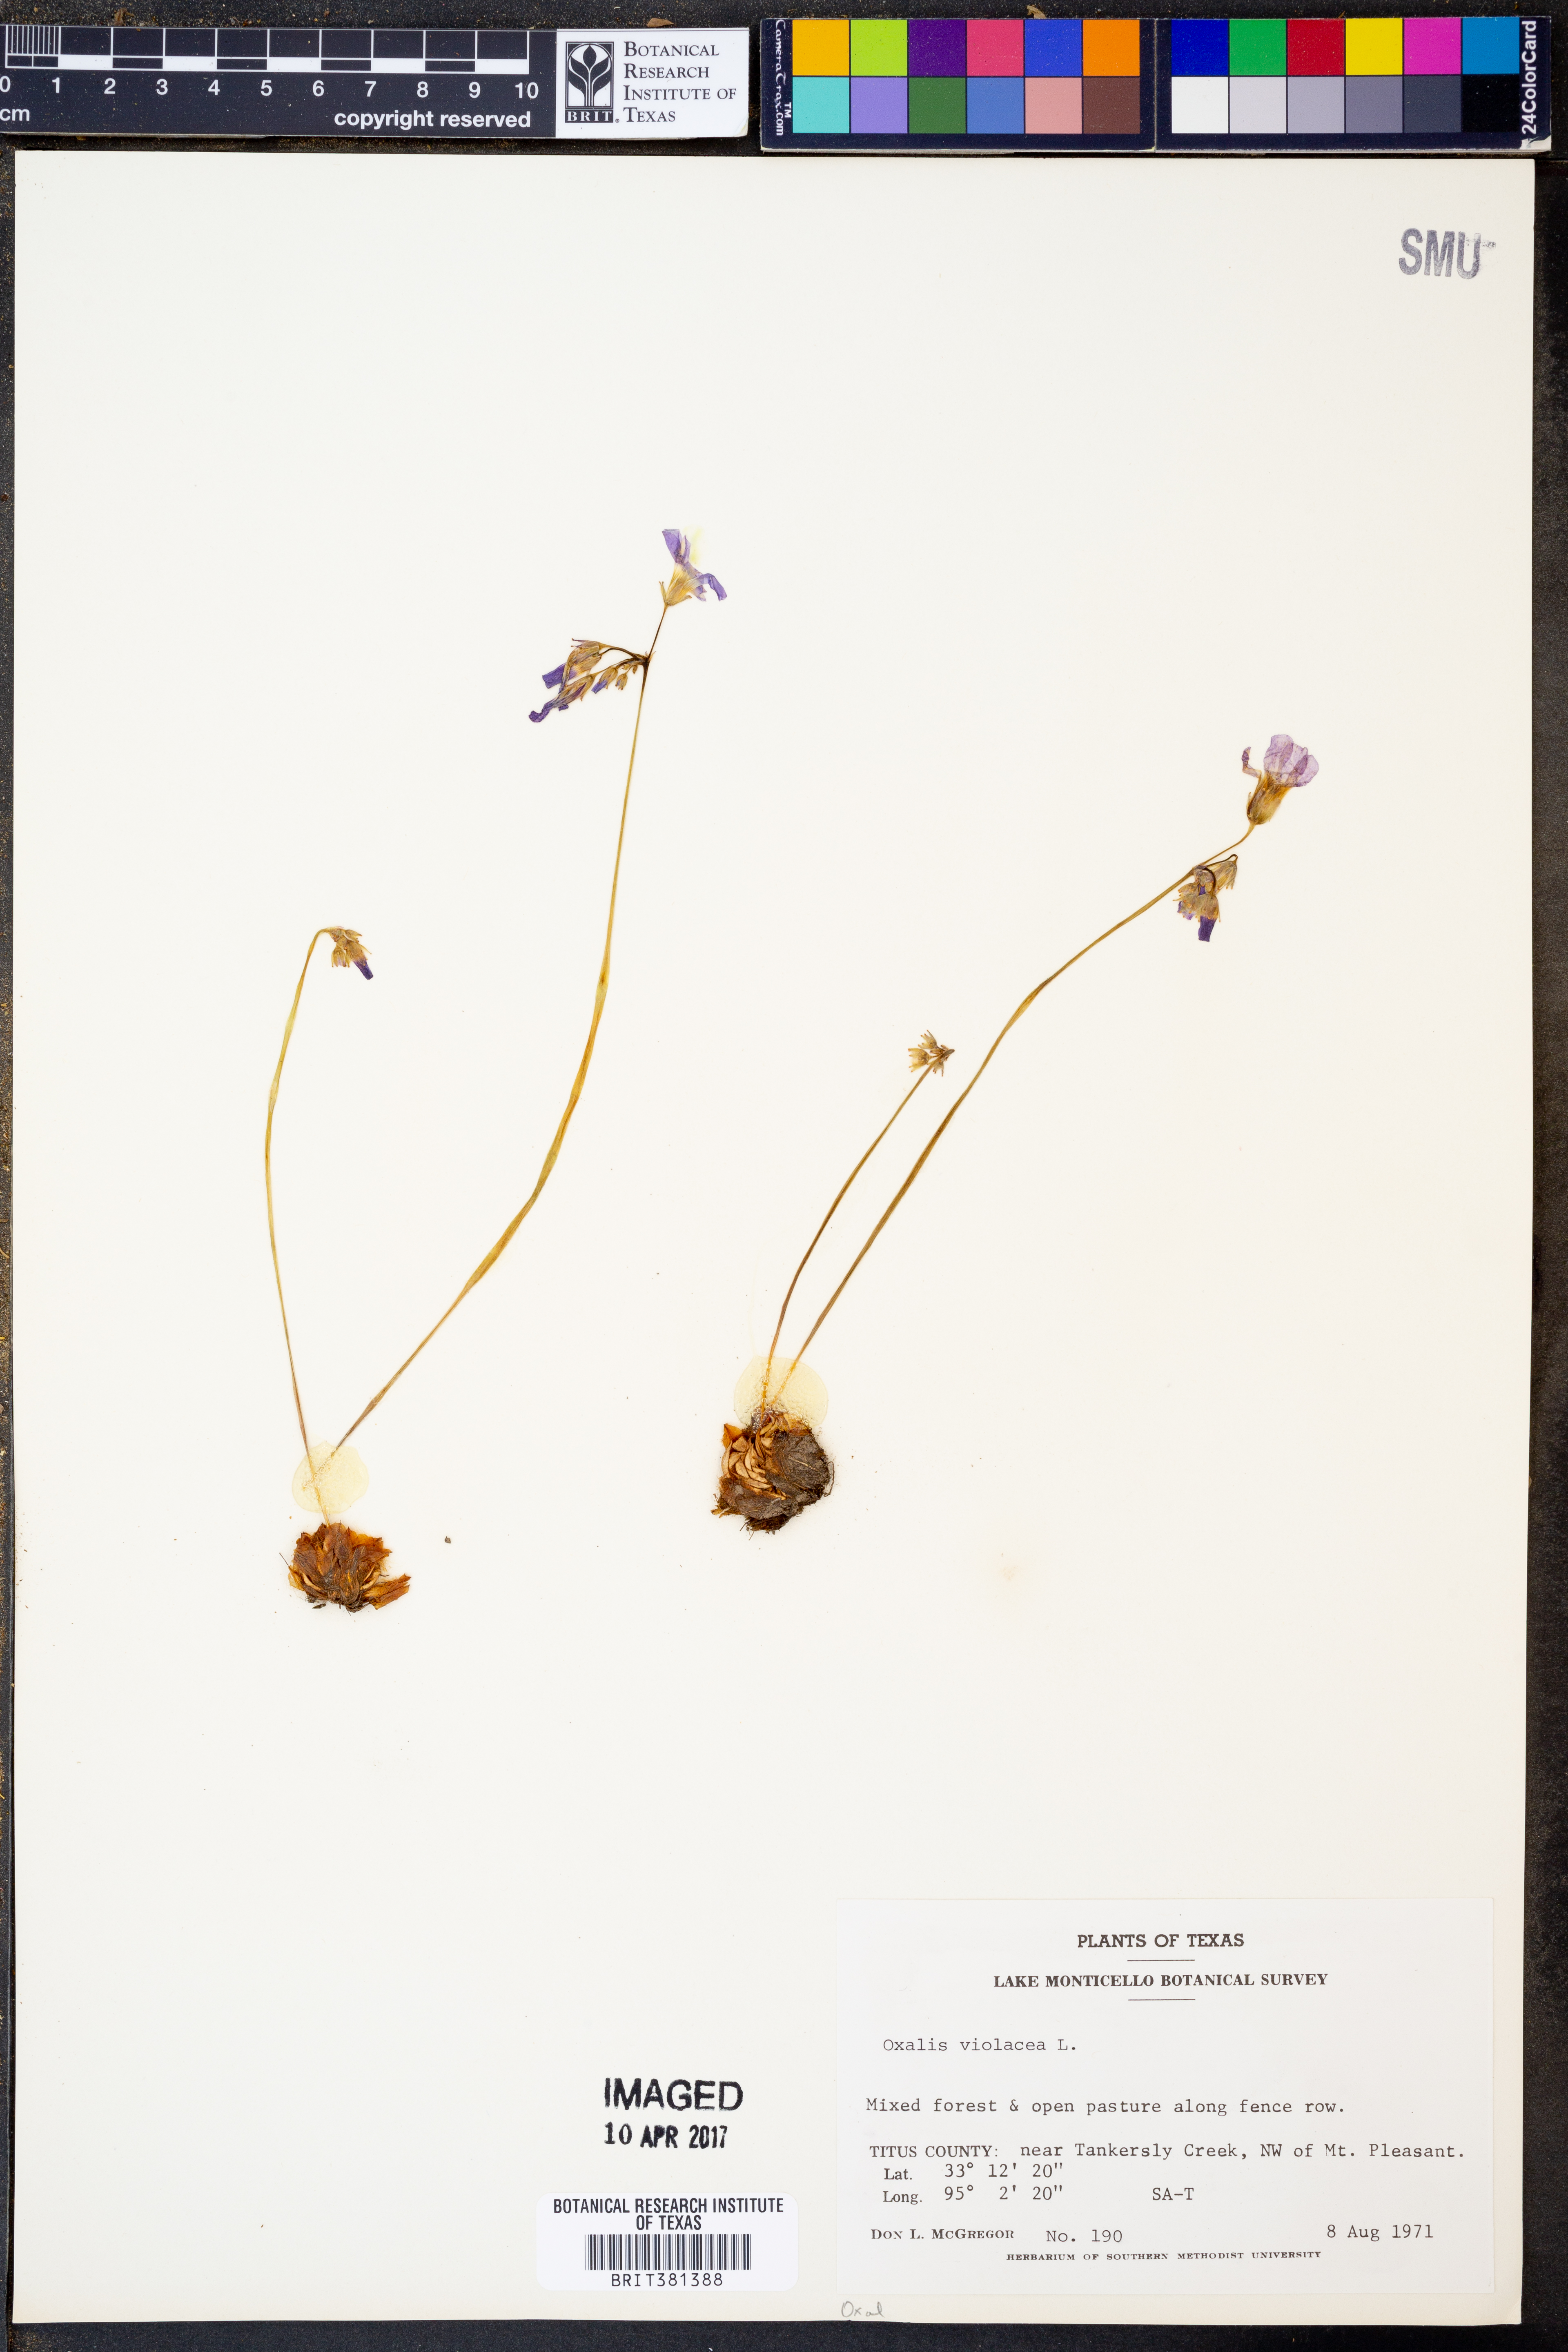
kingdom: Plantae
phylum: Tracheophyta
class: Magnoliopsida
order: Oxalidales
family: Oxalidaceae
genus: Oxalis
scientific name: Oxalis violacea
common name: Violet wood-sorrel
